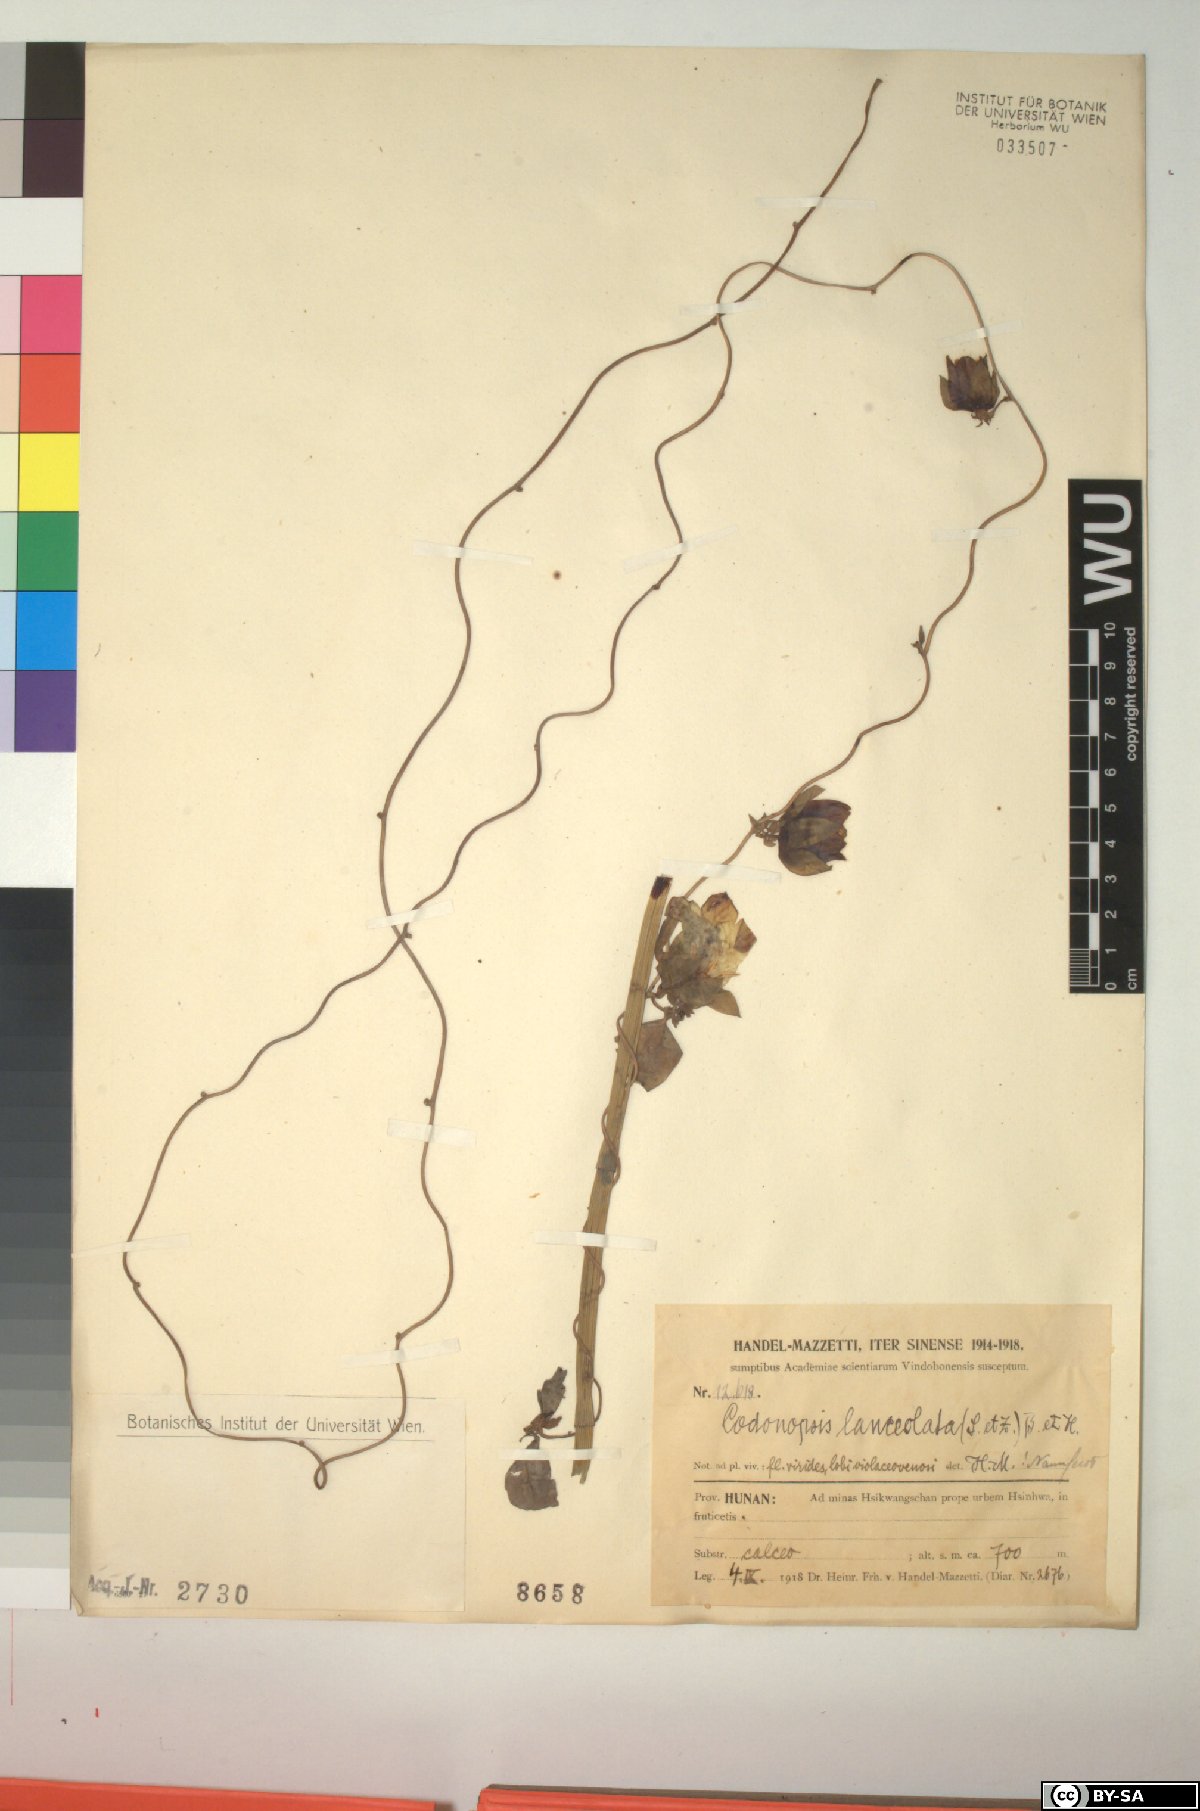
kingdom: Plantae
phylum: Tracheophyta
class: Magnoliopsida
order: Asterales
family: Campanulaceae
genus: Codonopsis
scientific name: Codonopsis lanceolata
